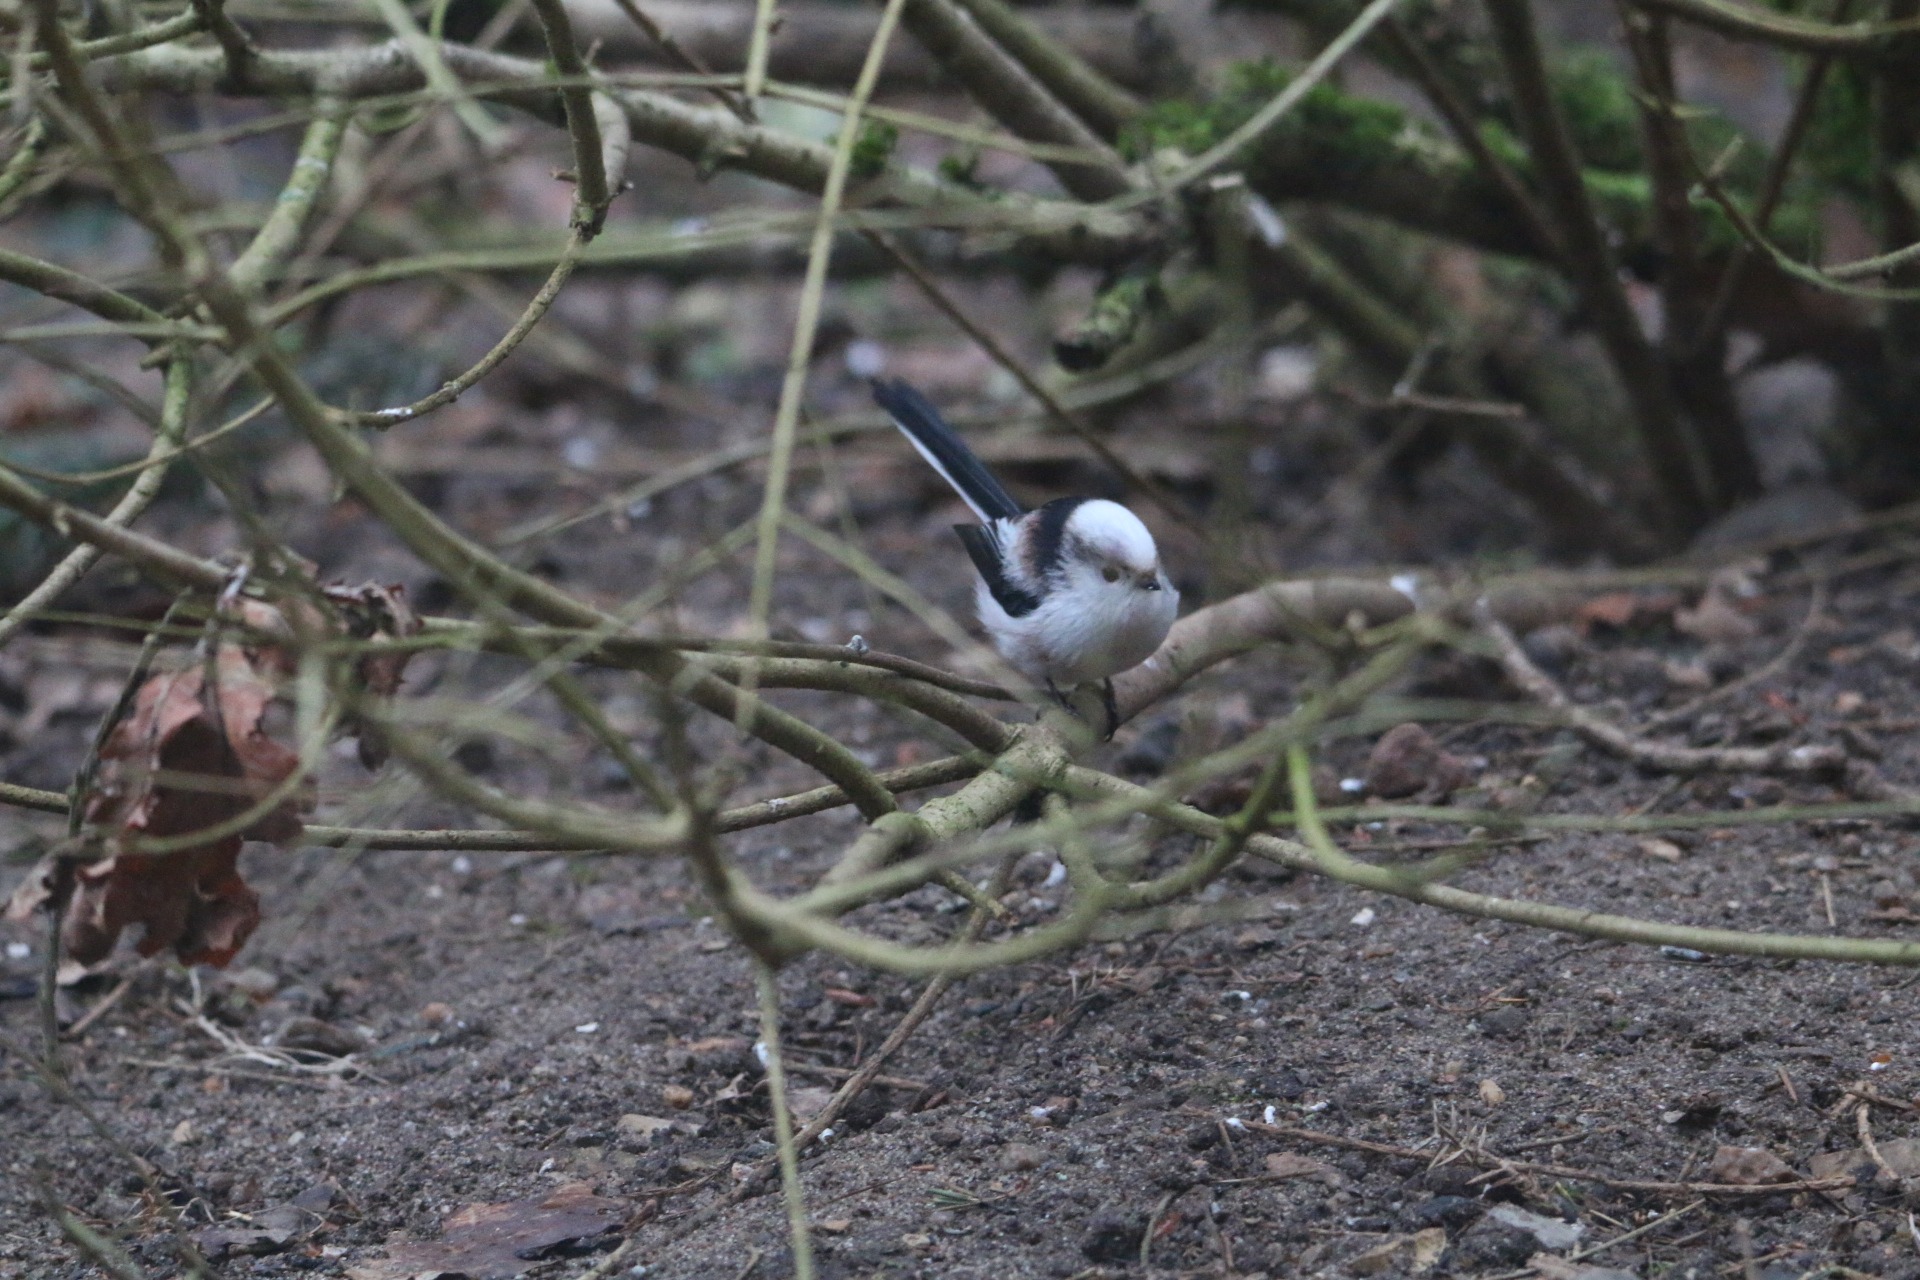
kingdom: Animalia
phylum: Chordata
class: Aves
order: Passeriformes
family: Aegithalidae
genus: Aegithalos
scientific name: Aegithalos caudatus
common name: Halemejse
